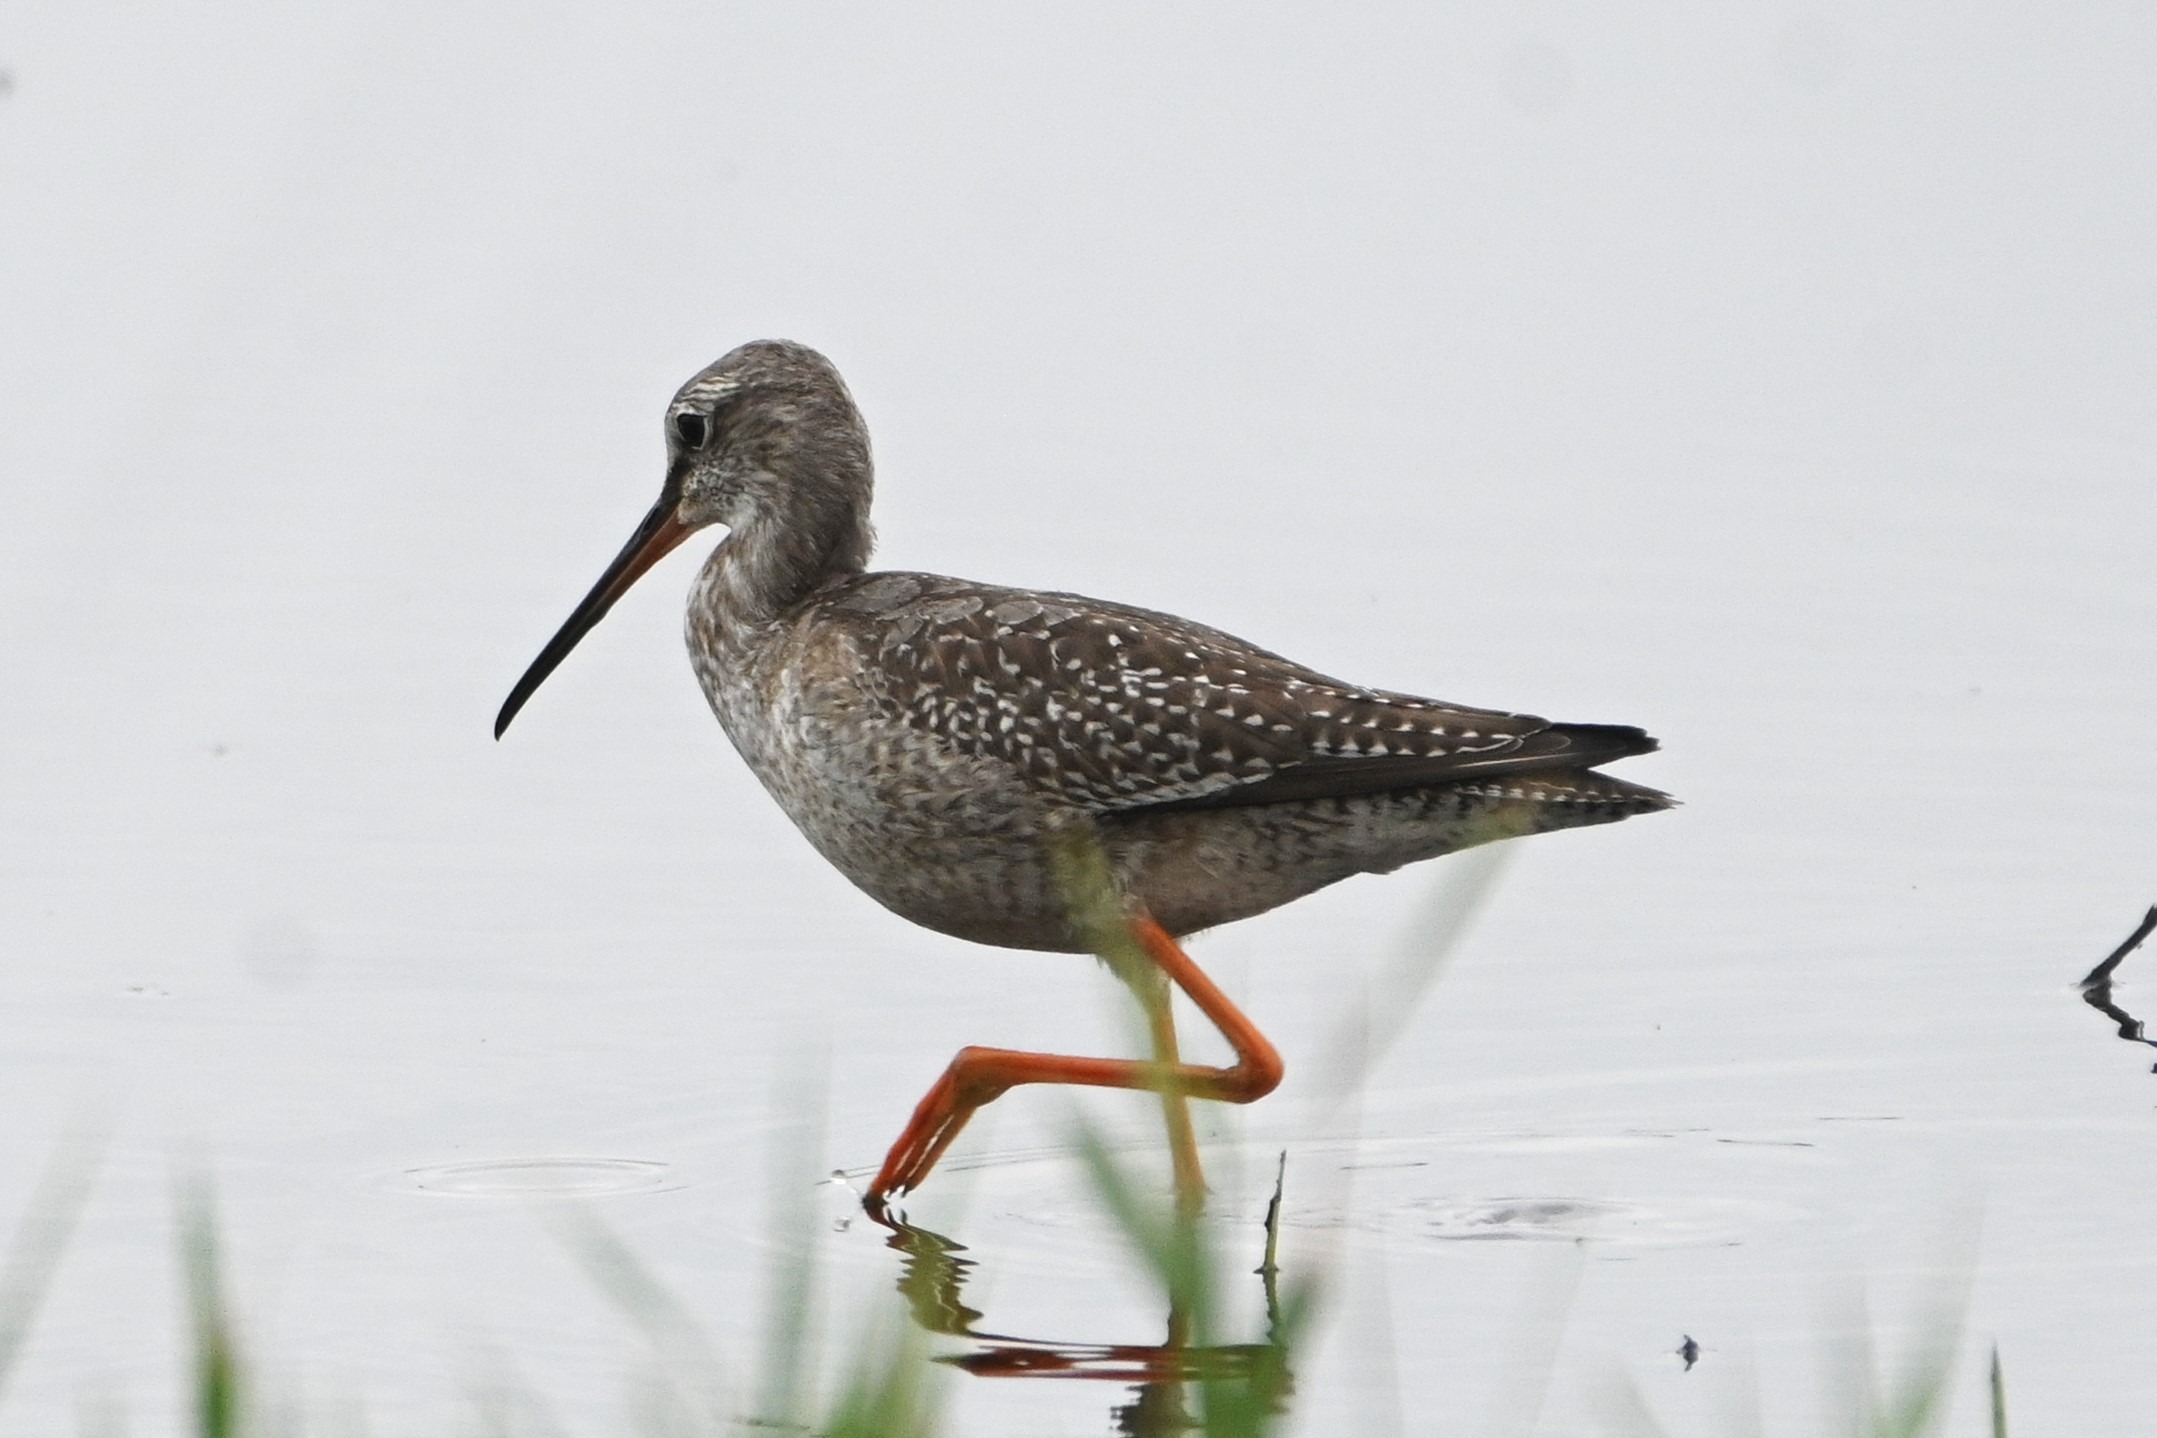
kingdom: Animalia
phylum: Chordata
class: Aves
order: Charadriiformes
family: Scolopacidae
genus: Tringa
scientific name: Tringa erythropus
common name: Sortklire
